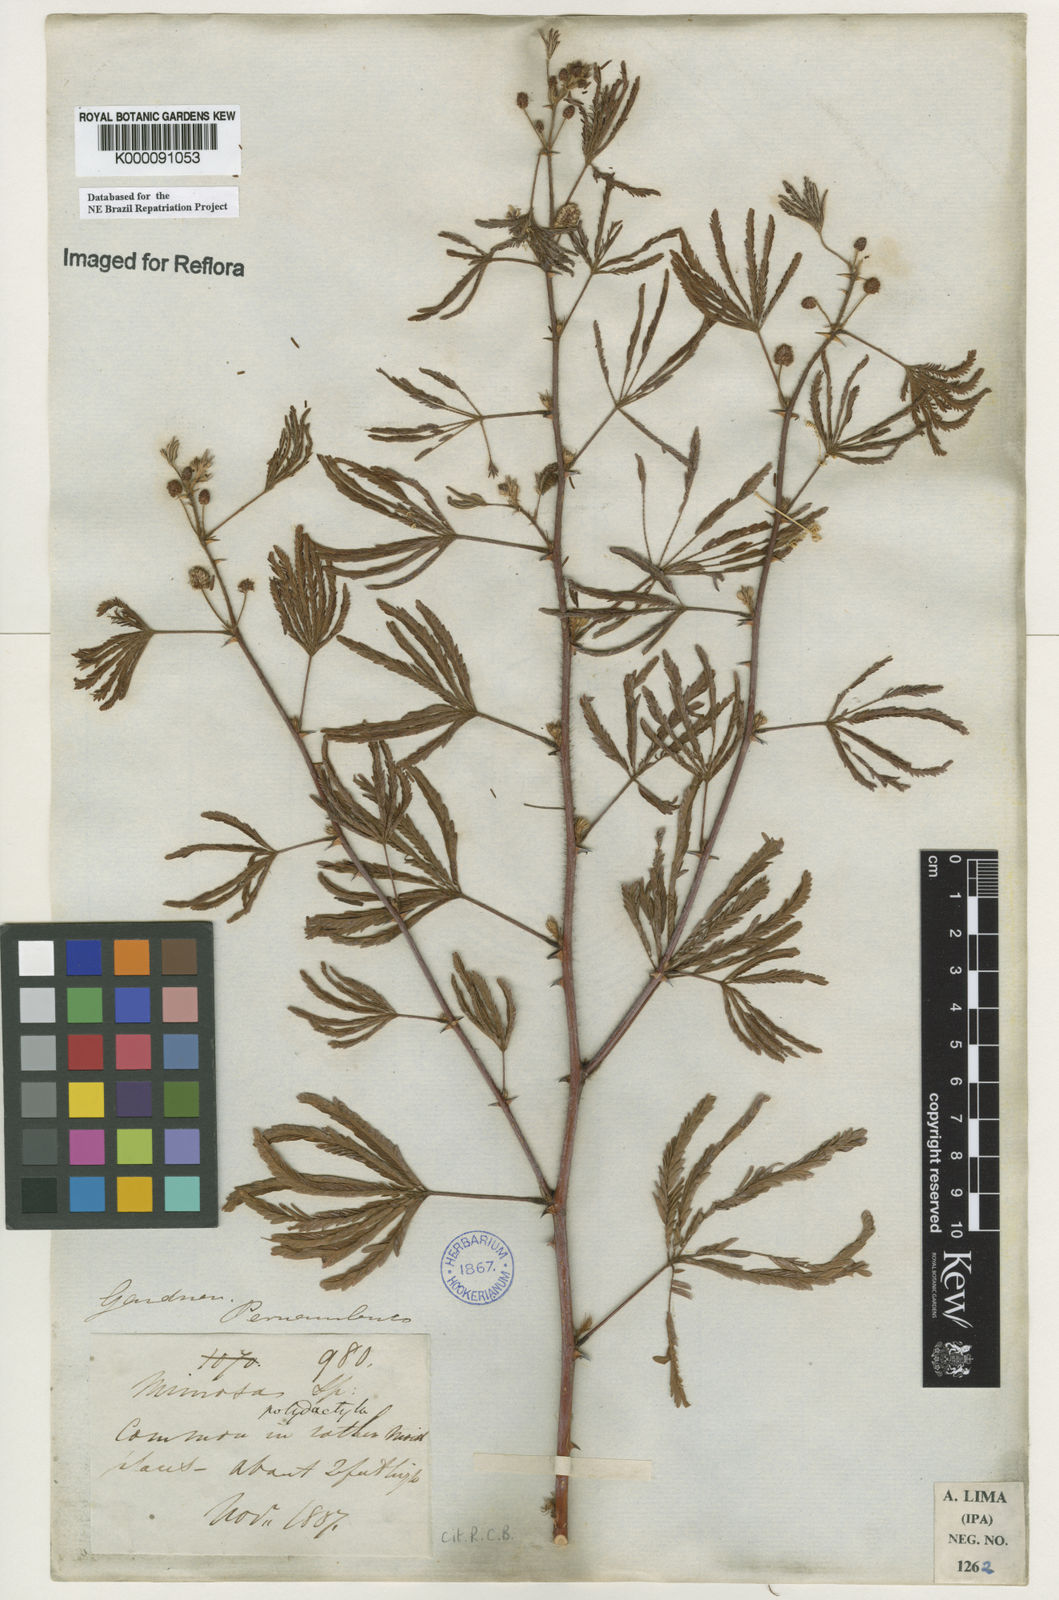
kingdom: Plantae
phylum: Tracheophyta
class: Magnoliopsida
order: Fabales
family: Fabaceae
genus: Mimosa
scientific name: Mimosa
